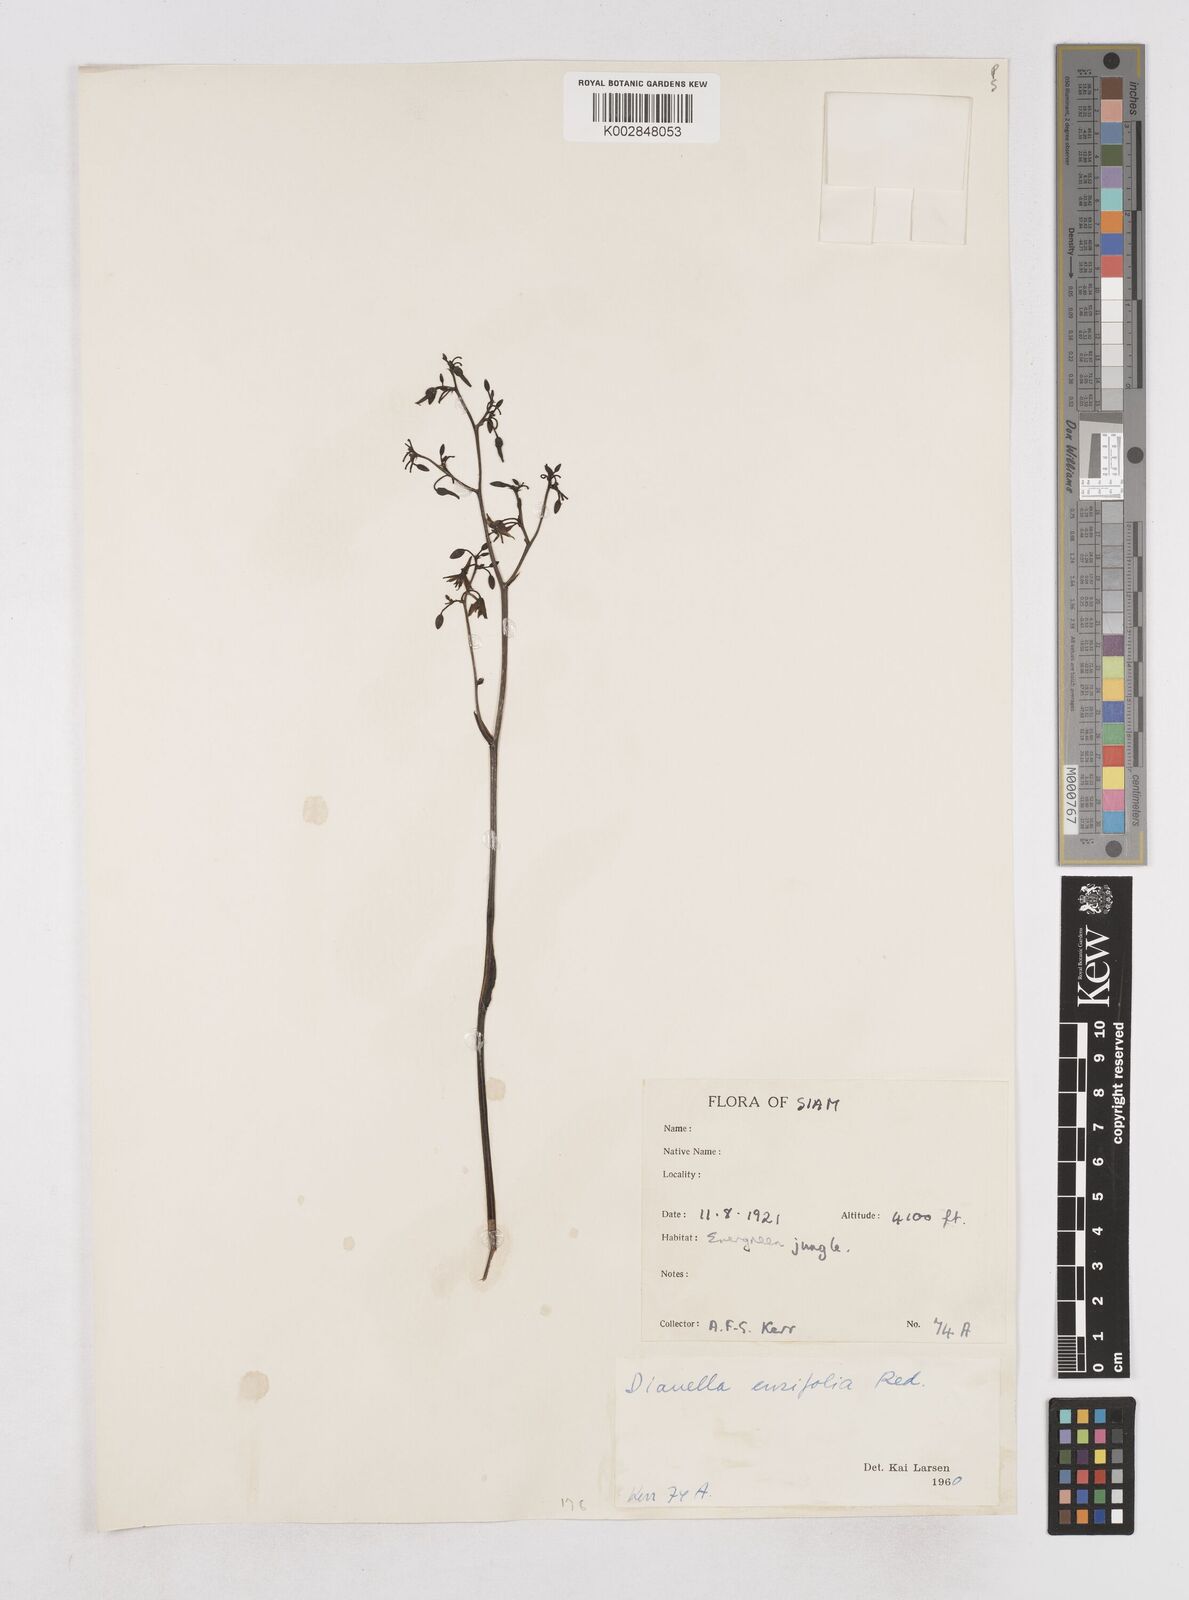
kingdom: Plantae
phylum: Tracheophyta
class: Liliopsida
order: Asparagales
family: Asphodelaceae
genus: Dianella
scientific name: Dianella ensifolia
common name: New zealand lilyplant
